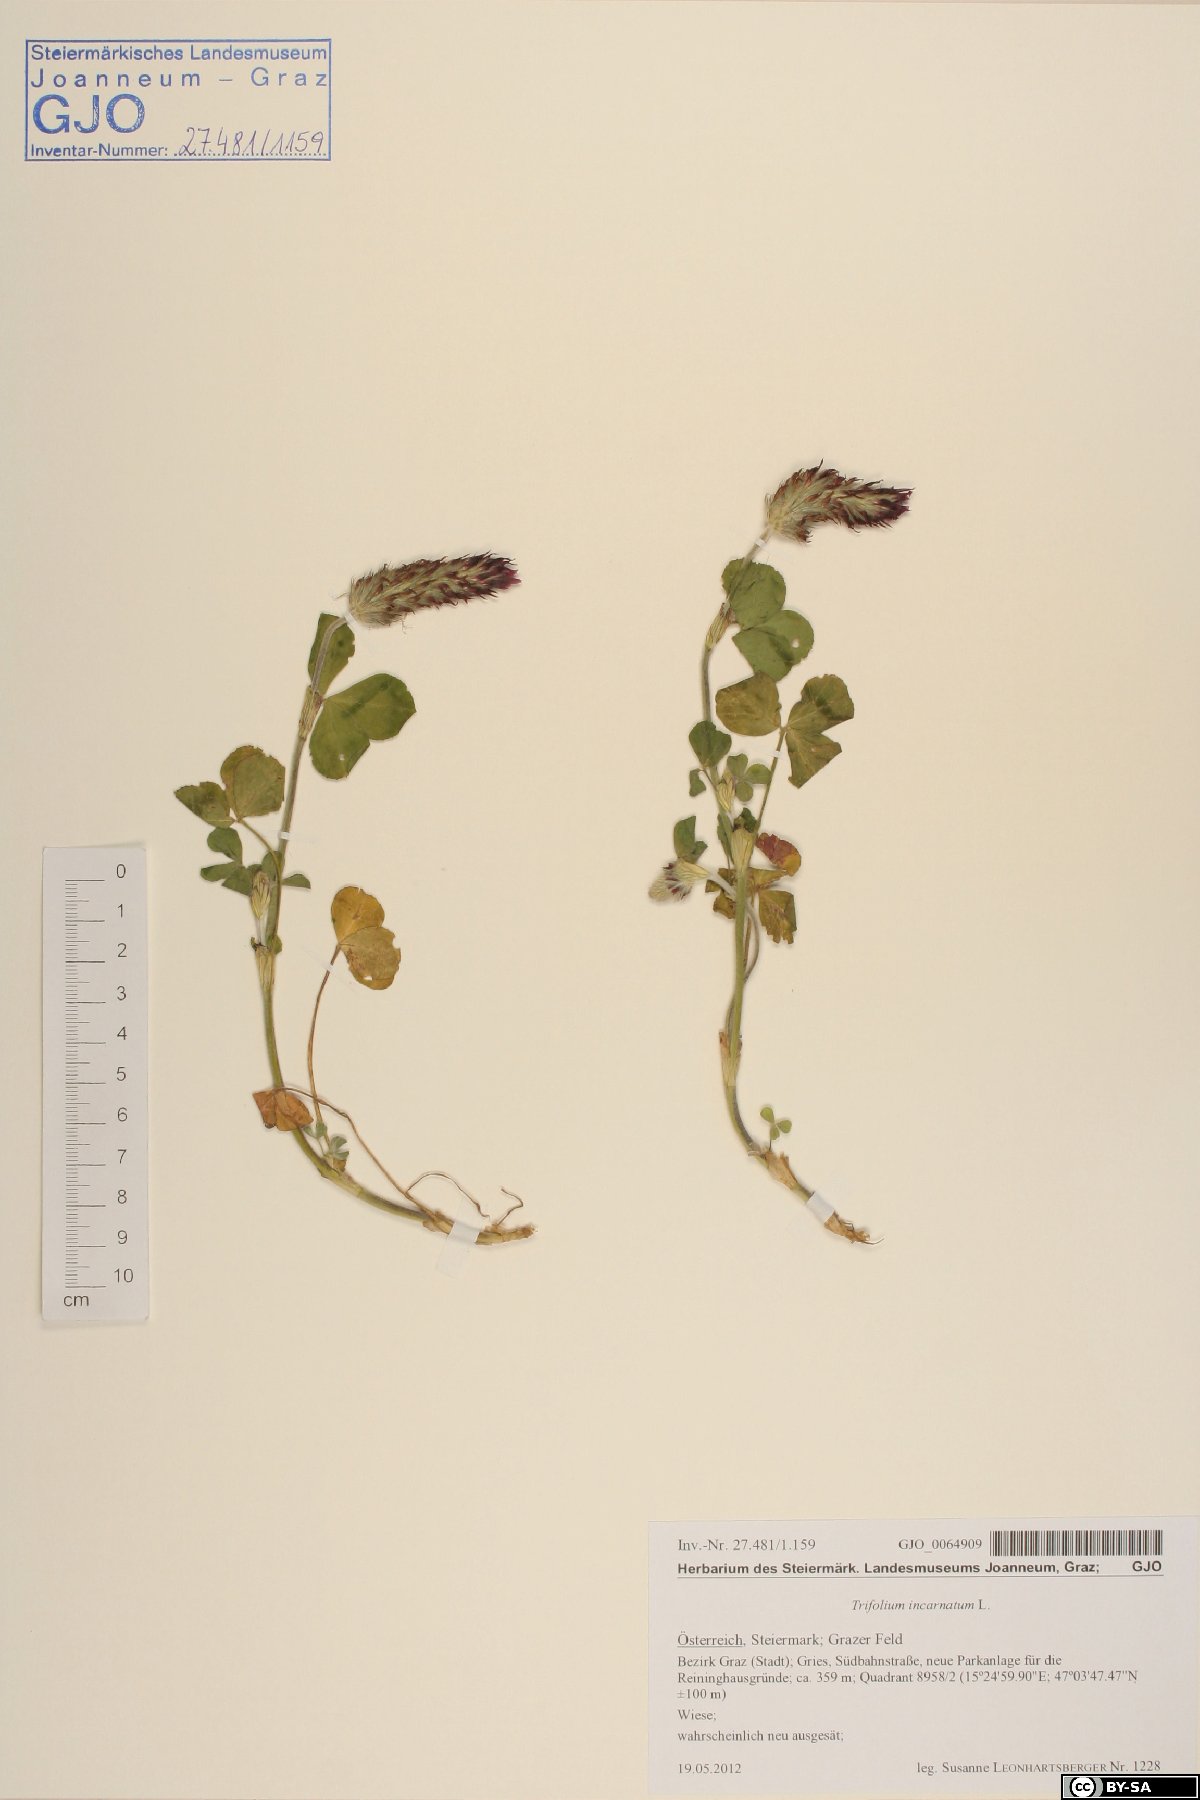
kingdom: Plantae
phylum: Tracheophyta
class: Magnoliopsida
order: Fabales
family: Fabaceae
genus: Trifolium
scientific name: Trifolium incarnatum
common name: Crimson clover
